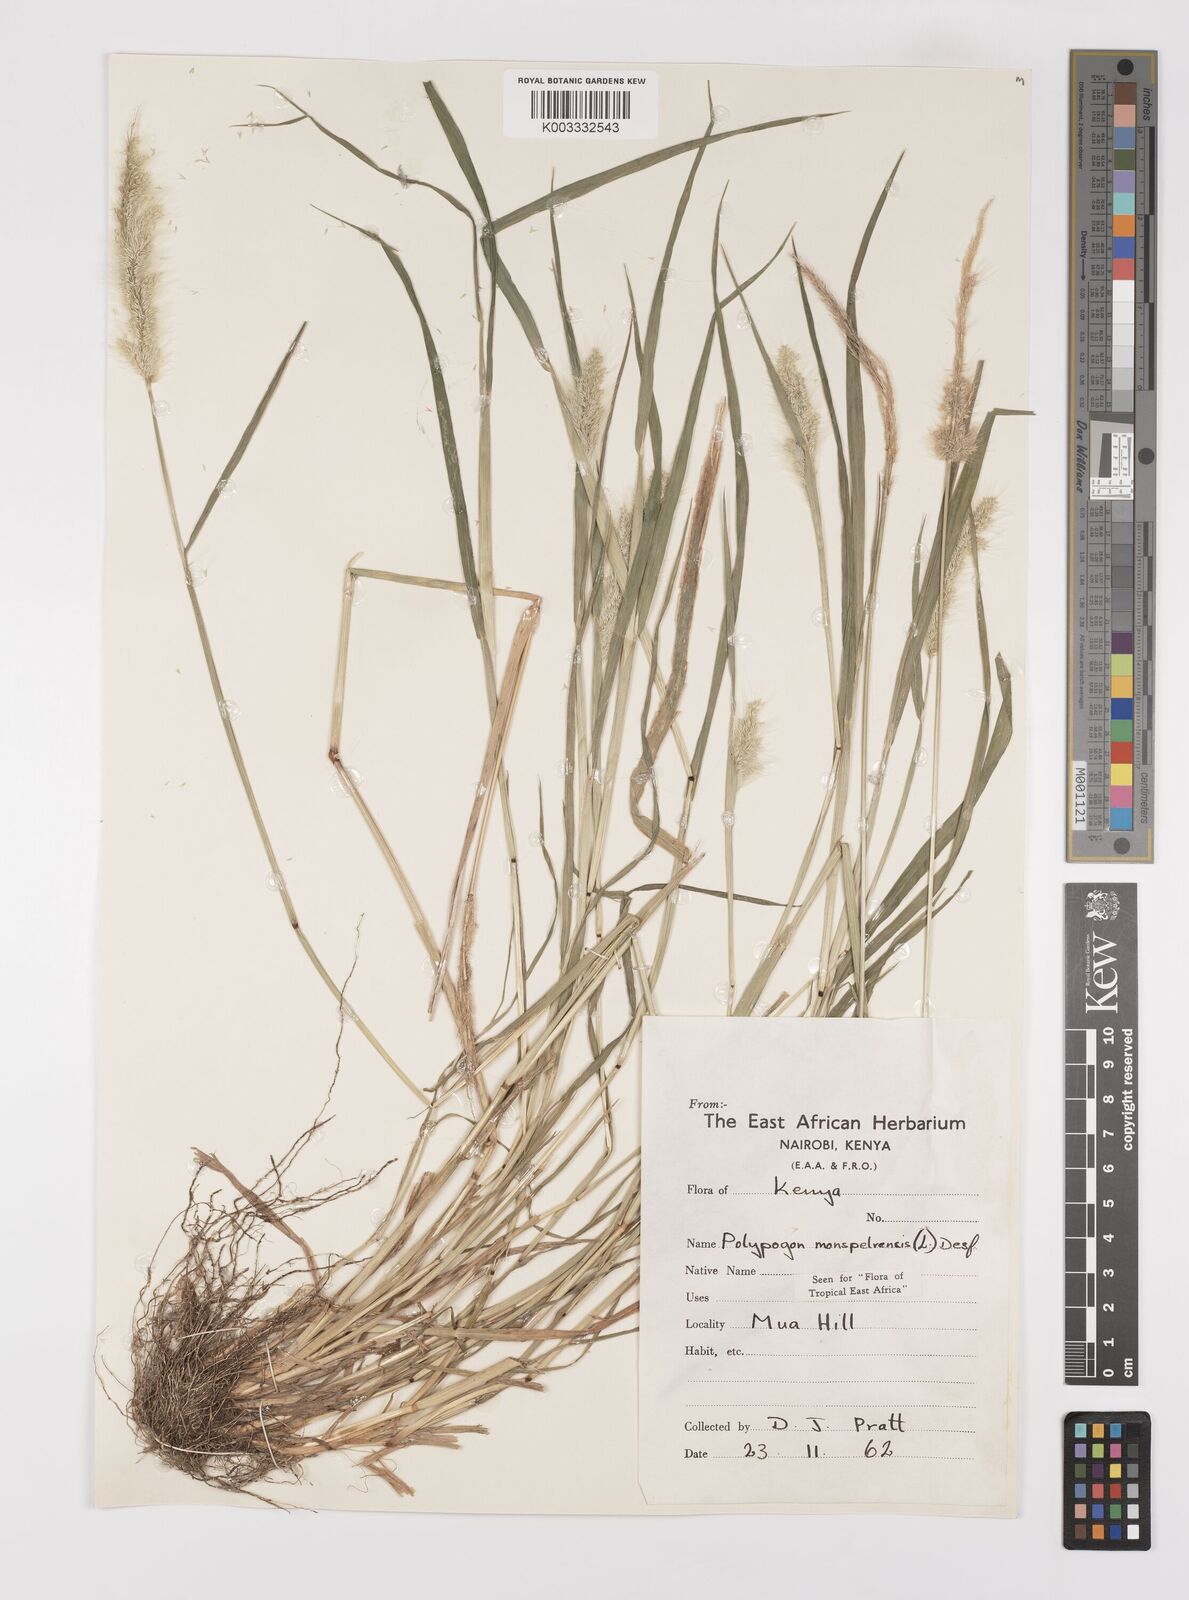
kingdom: Plantae
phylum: Tracheophyta
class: Liliopsida
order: Poales
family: Poaceae
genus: Polypogon
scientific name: Polypogon monspeliensis
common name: Annual rabbitsfoot grass
